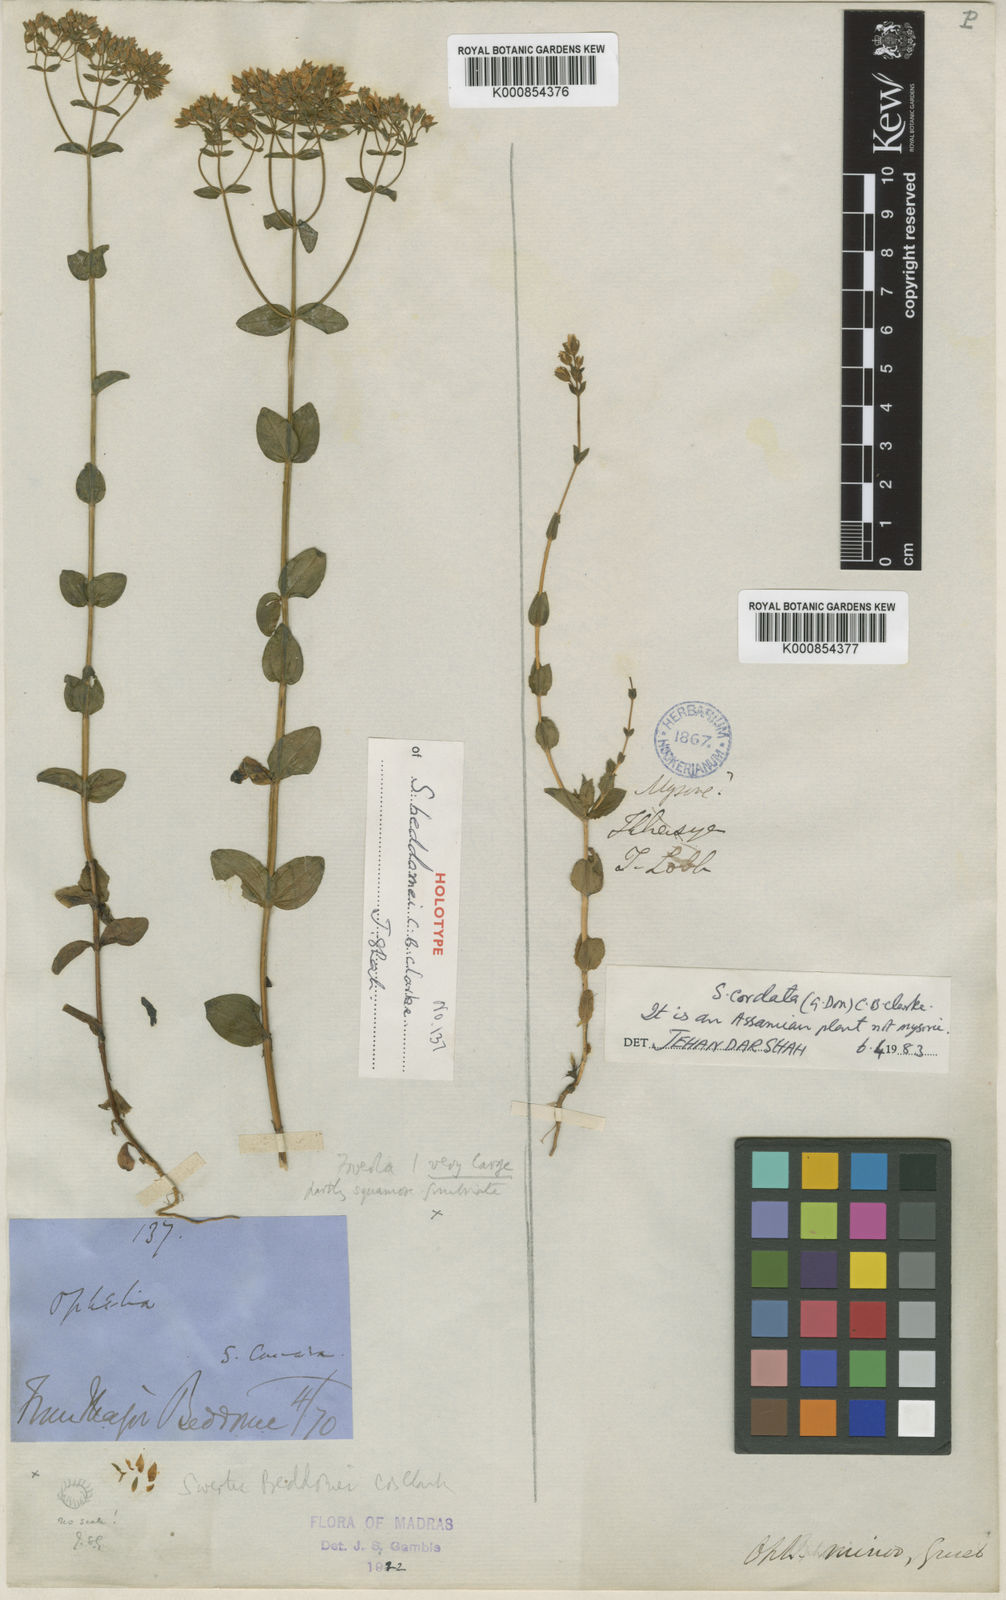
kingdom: Plantae
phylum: Tracheophyta
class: Magnoliopsida
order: Gentianales
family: Gentianaceae
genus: Swertia
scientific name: Swertia beddomei
